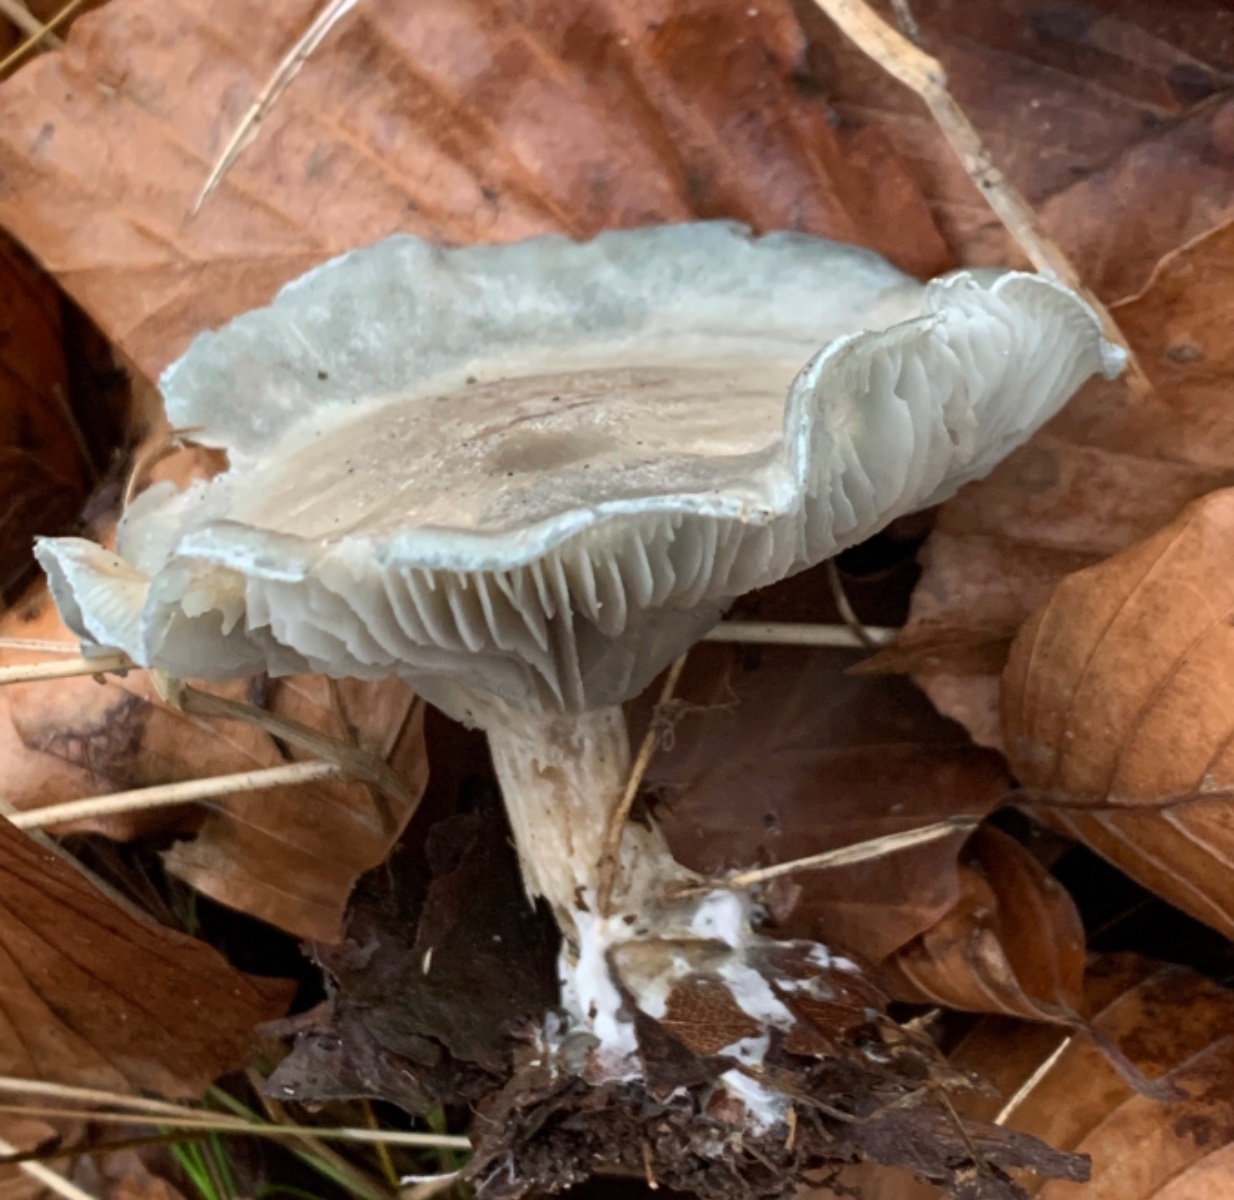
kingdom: Fungi
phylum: Basidiomycota
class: Agaricomycetes
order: Agaricales
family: Tricholomataceae
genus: Clitocybe
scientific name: Clitocybe odora
